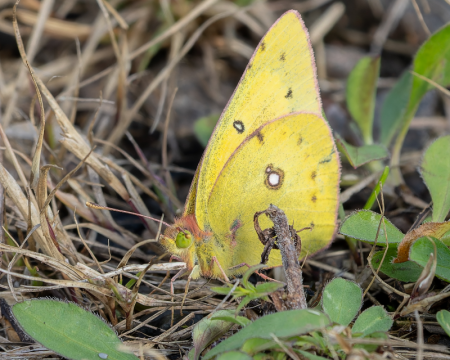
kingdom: Animalia
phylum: Arthropoda
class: Insecta
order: Lepidoptera
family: Pieridae
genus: Colias
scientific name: Colias philodice
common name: Clouded Sulphur
